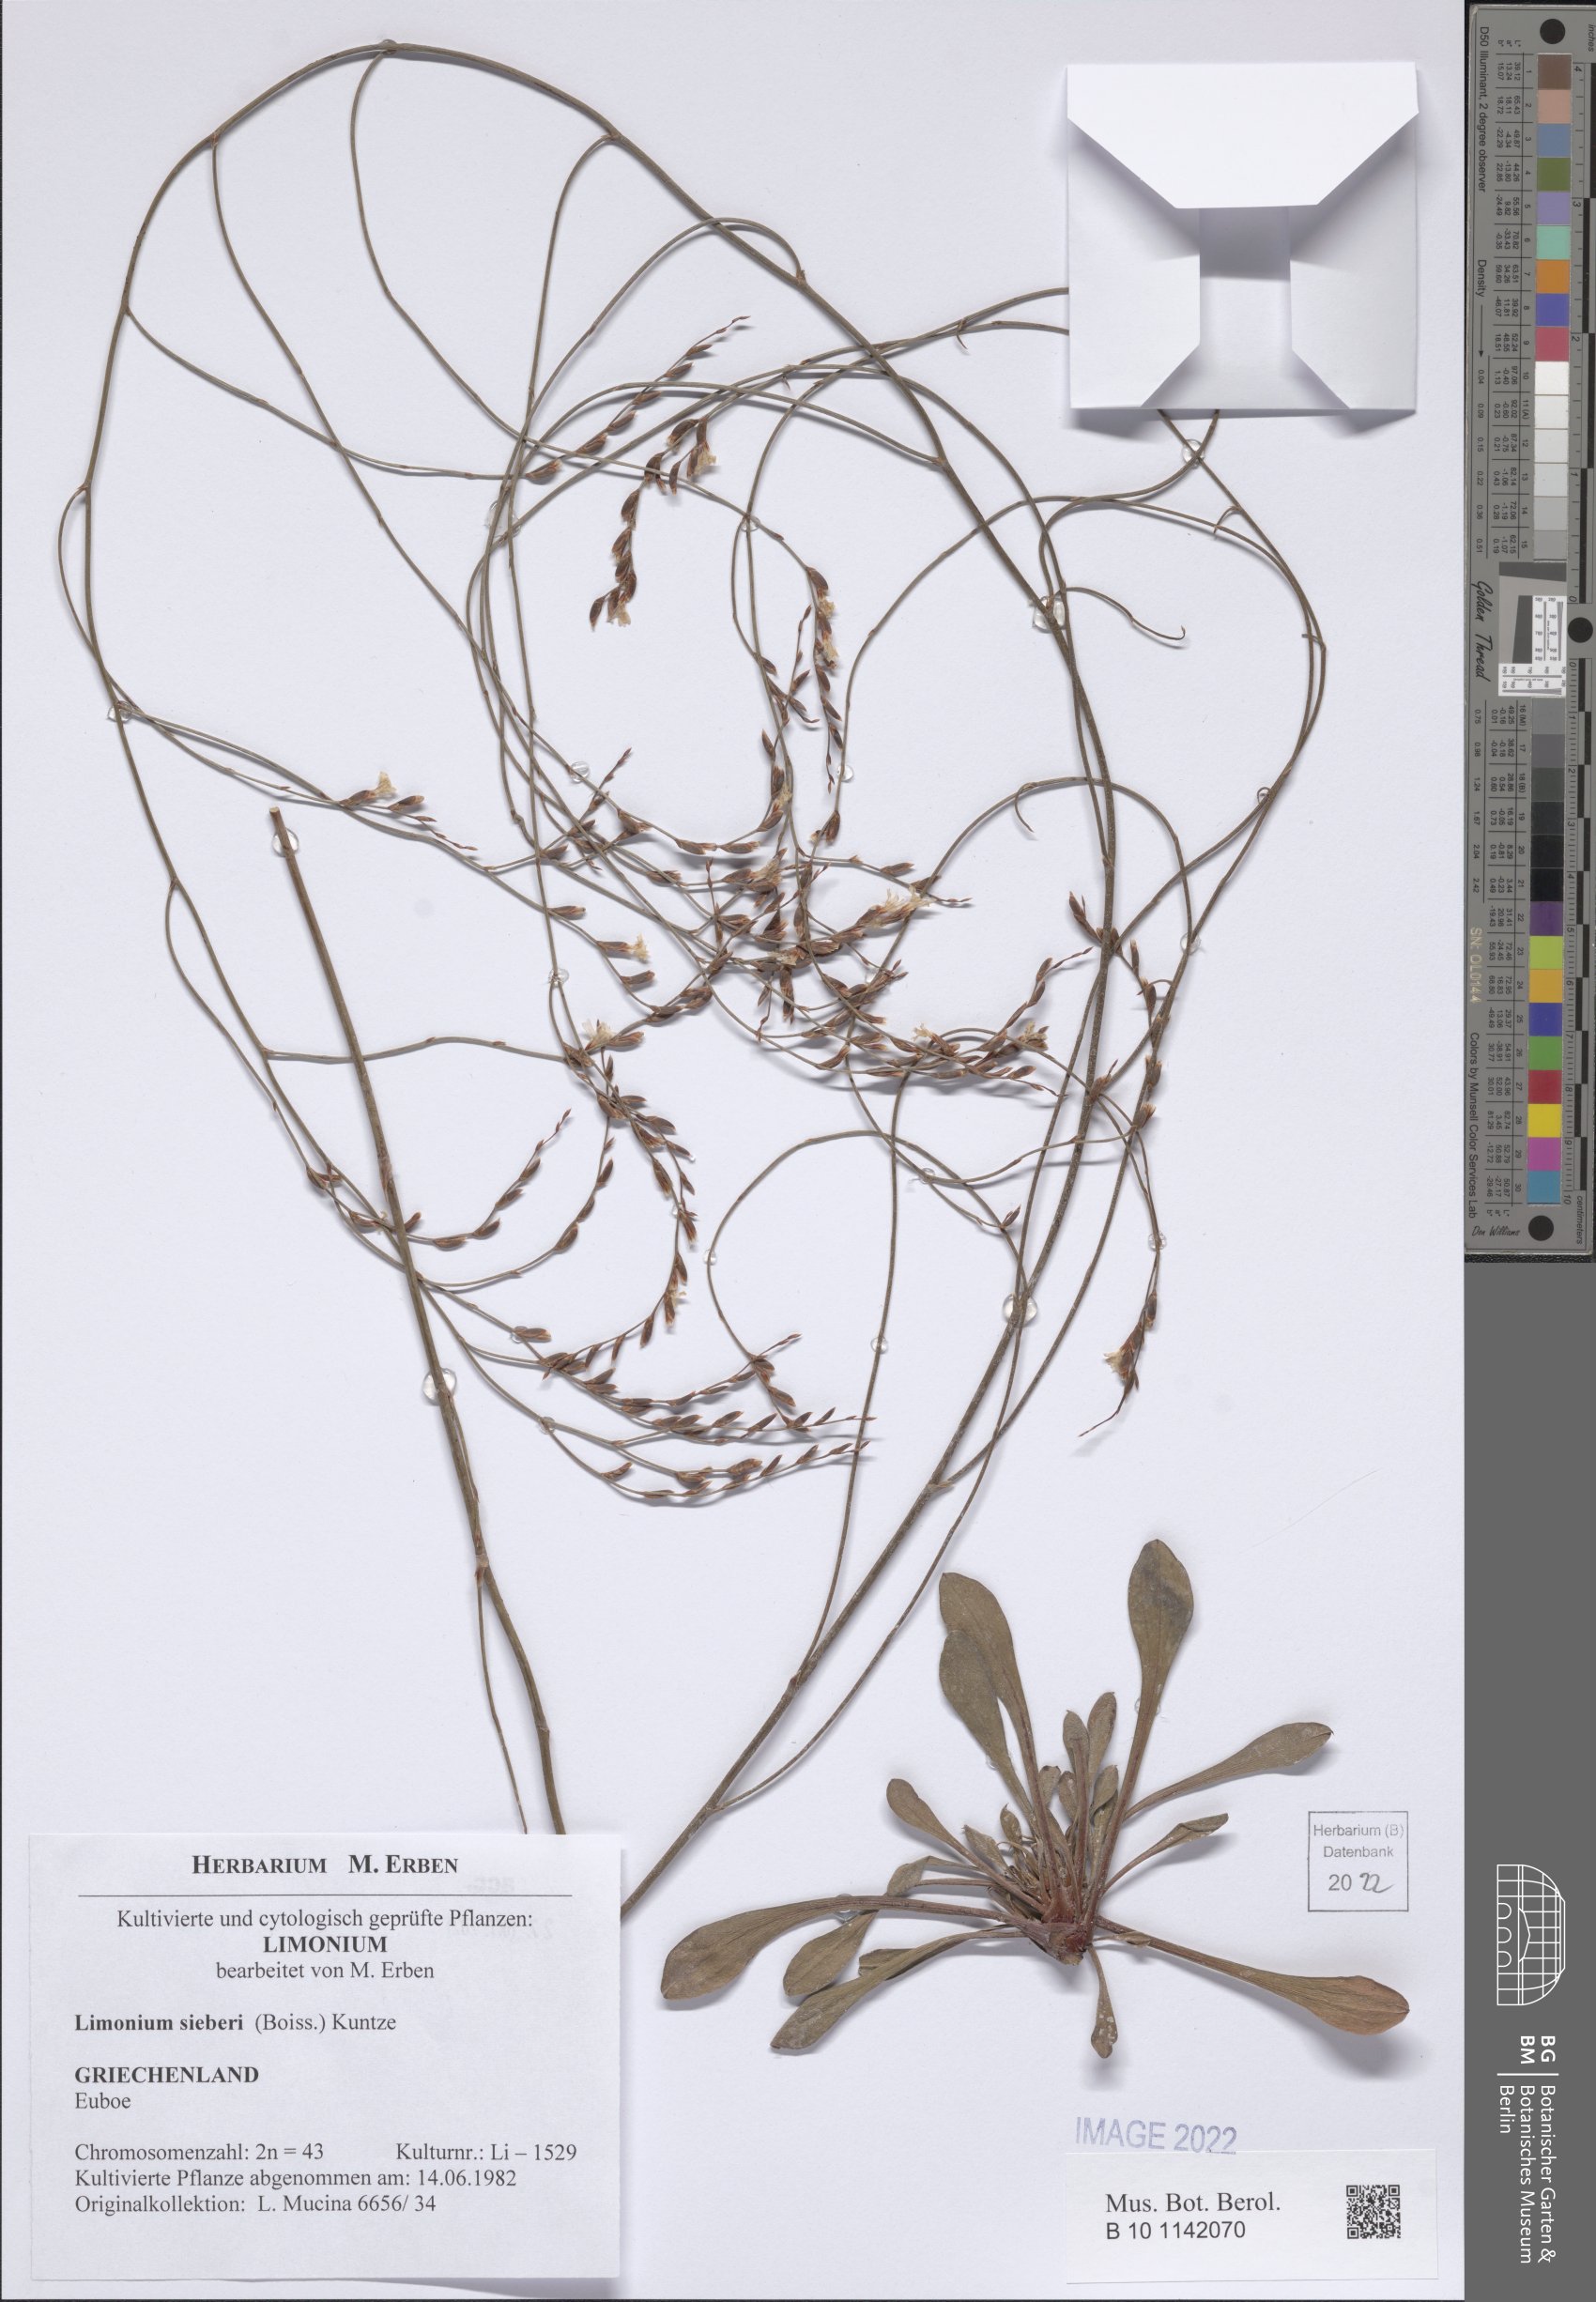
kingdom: Plantae
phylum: Tracheophyta
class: Magnoliopsida
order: Caryophyllales
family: Plumbaginaceae
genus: Limonium
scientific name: Limonium sieberi
